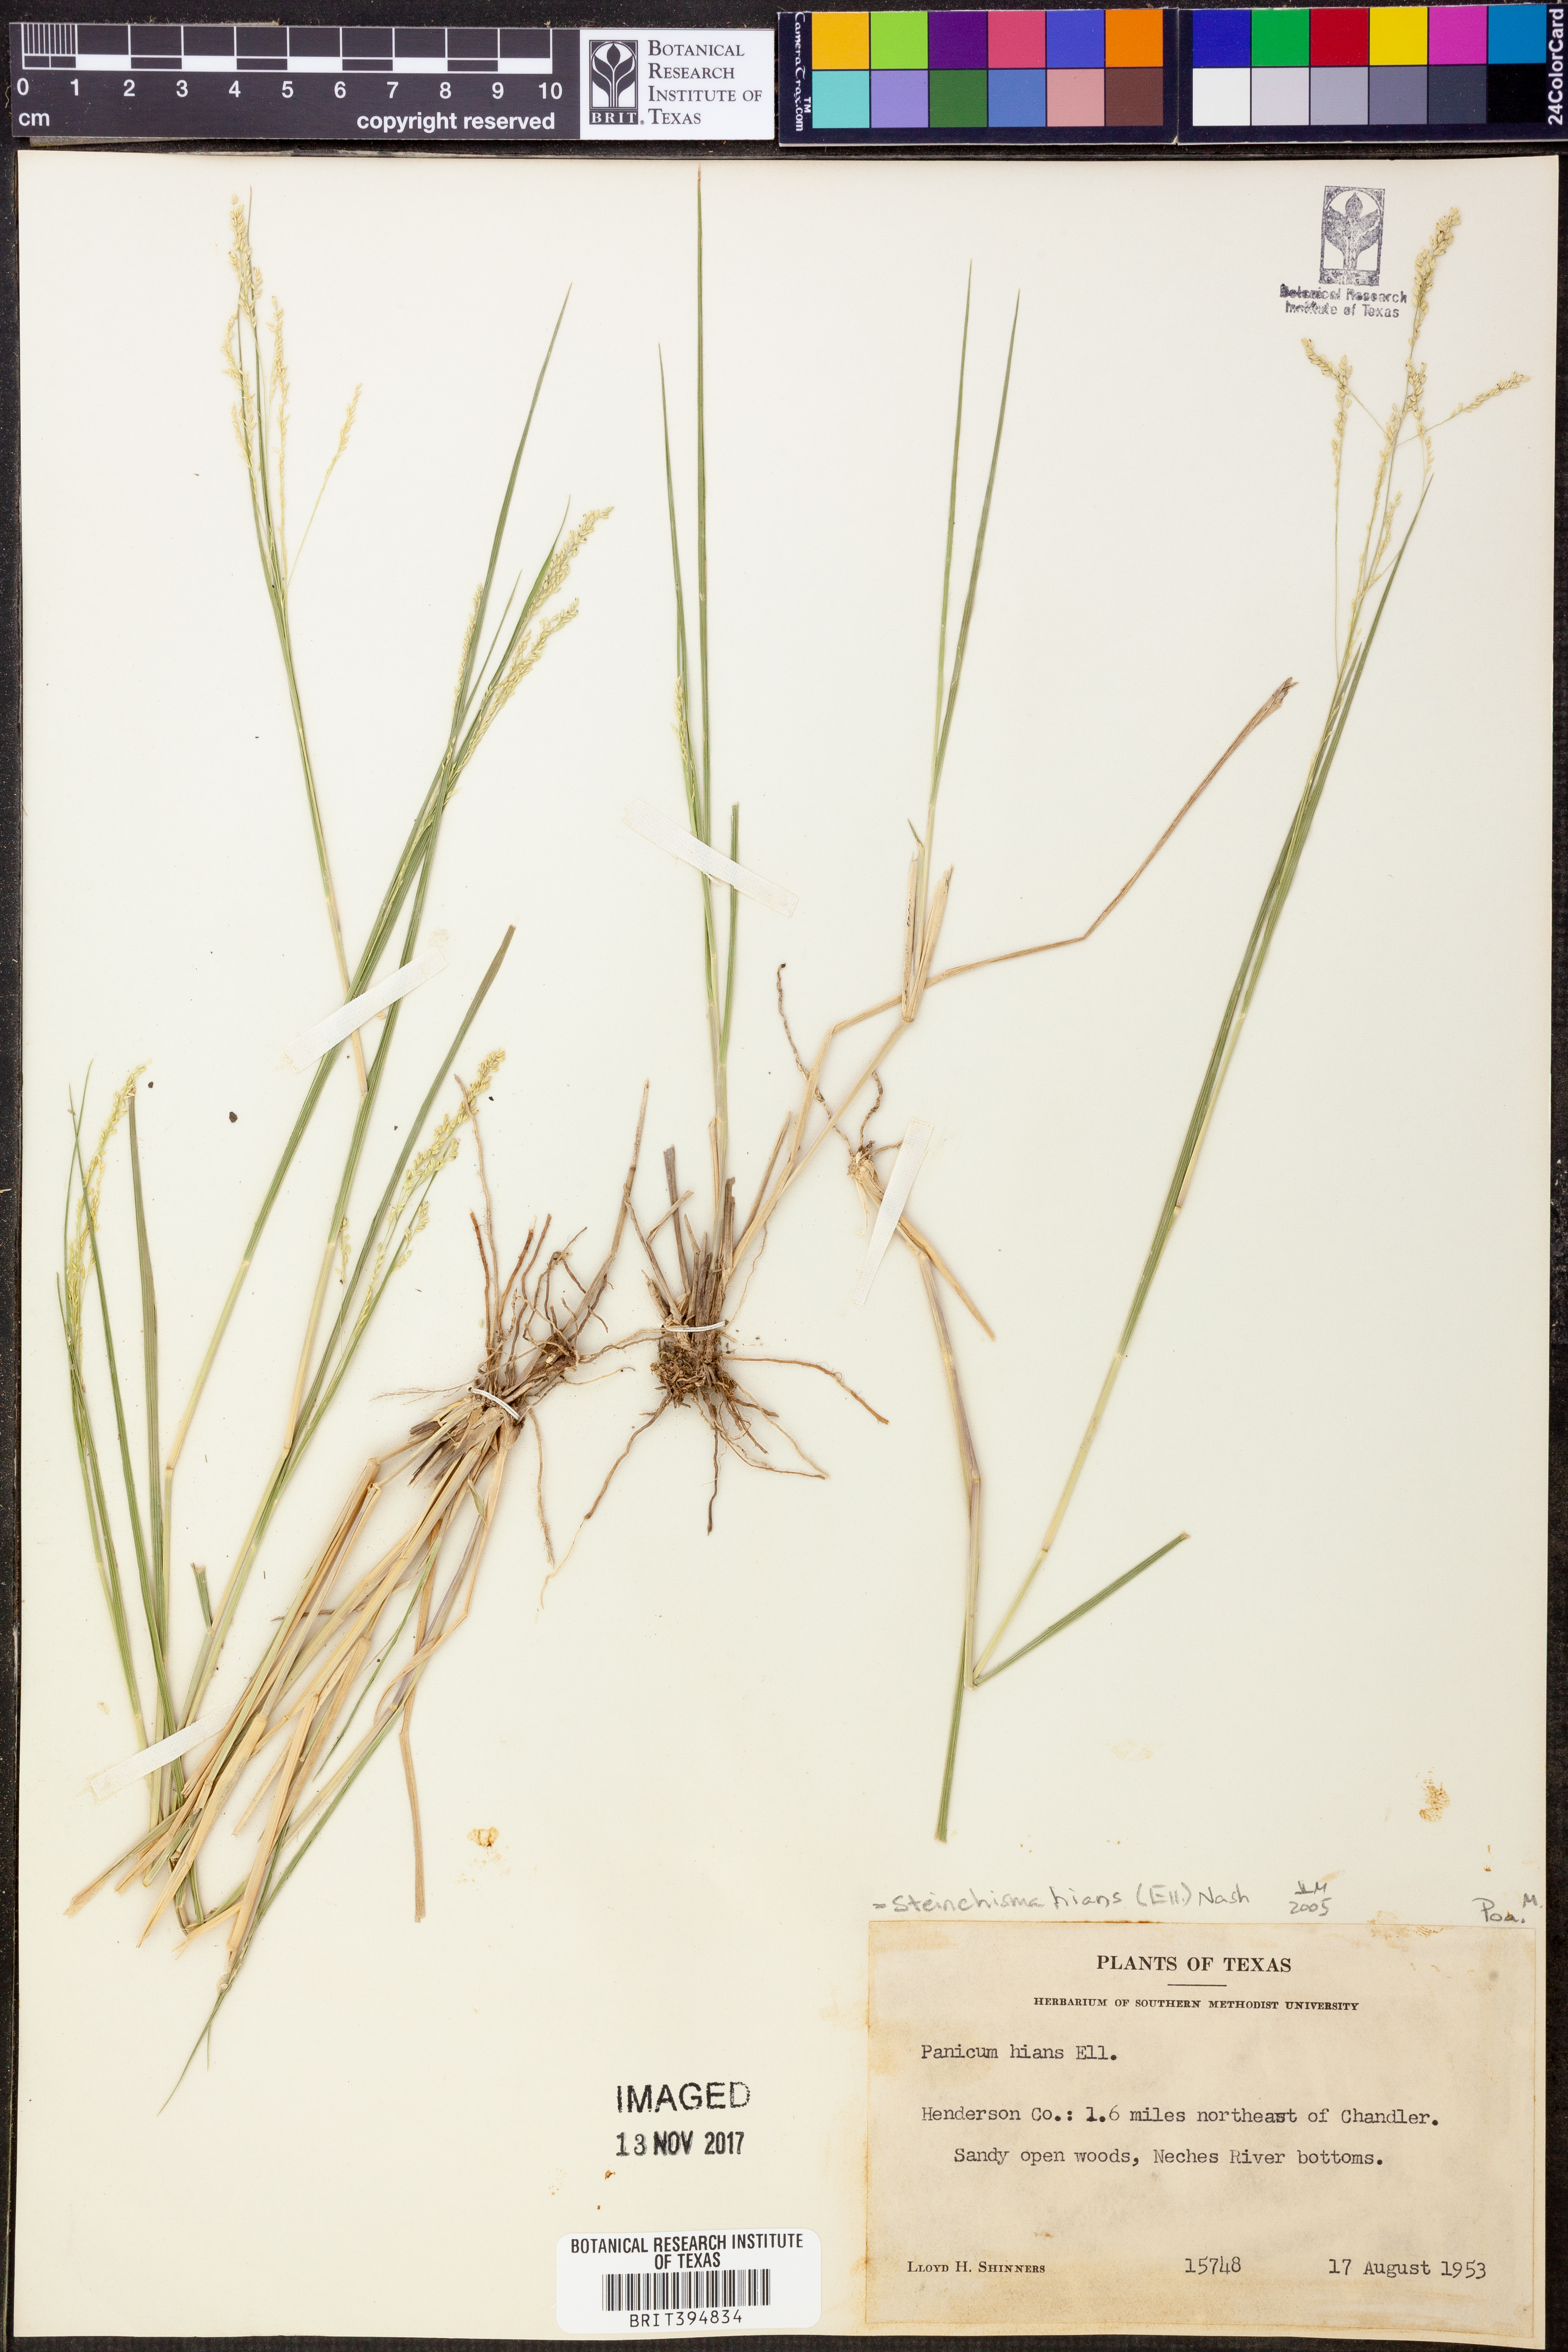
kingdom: Plantae
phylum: Tracheophyta
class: Liliopsida
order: Poales
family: Poaceae
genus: Steinchisma
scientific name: Steinchisma hians
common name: Gaping panic grass
